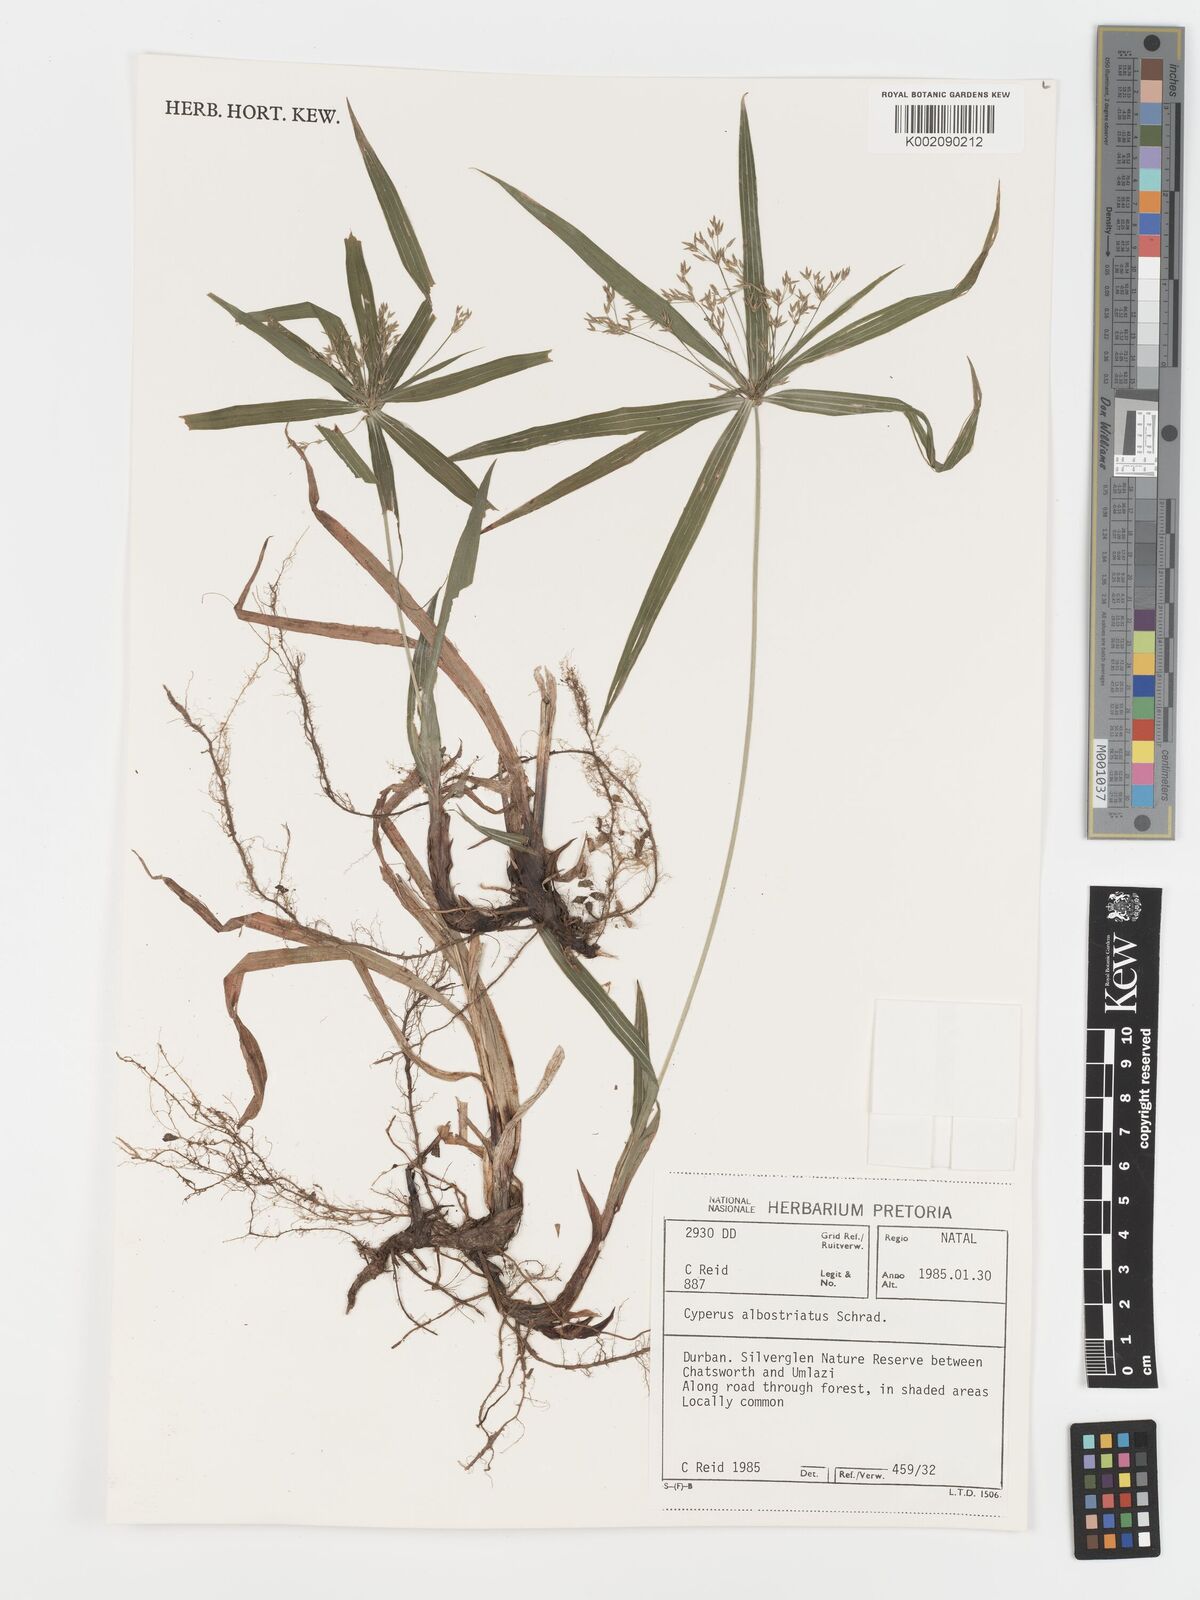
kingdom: Plantae
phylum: Tracheophyta
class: Liliopsida
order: Poales
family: Cyperaceae
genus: Cyperus
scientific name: Cyperus albostriatus
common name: Dwarf umbrella-grass
